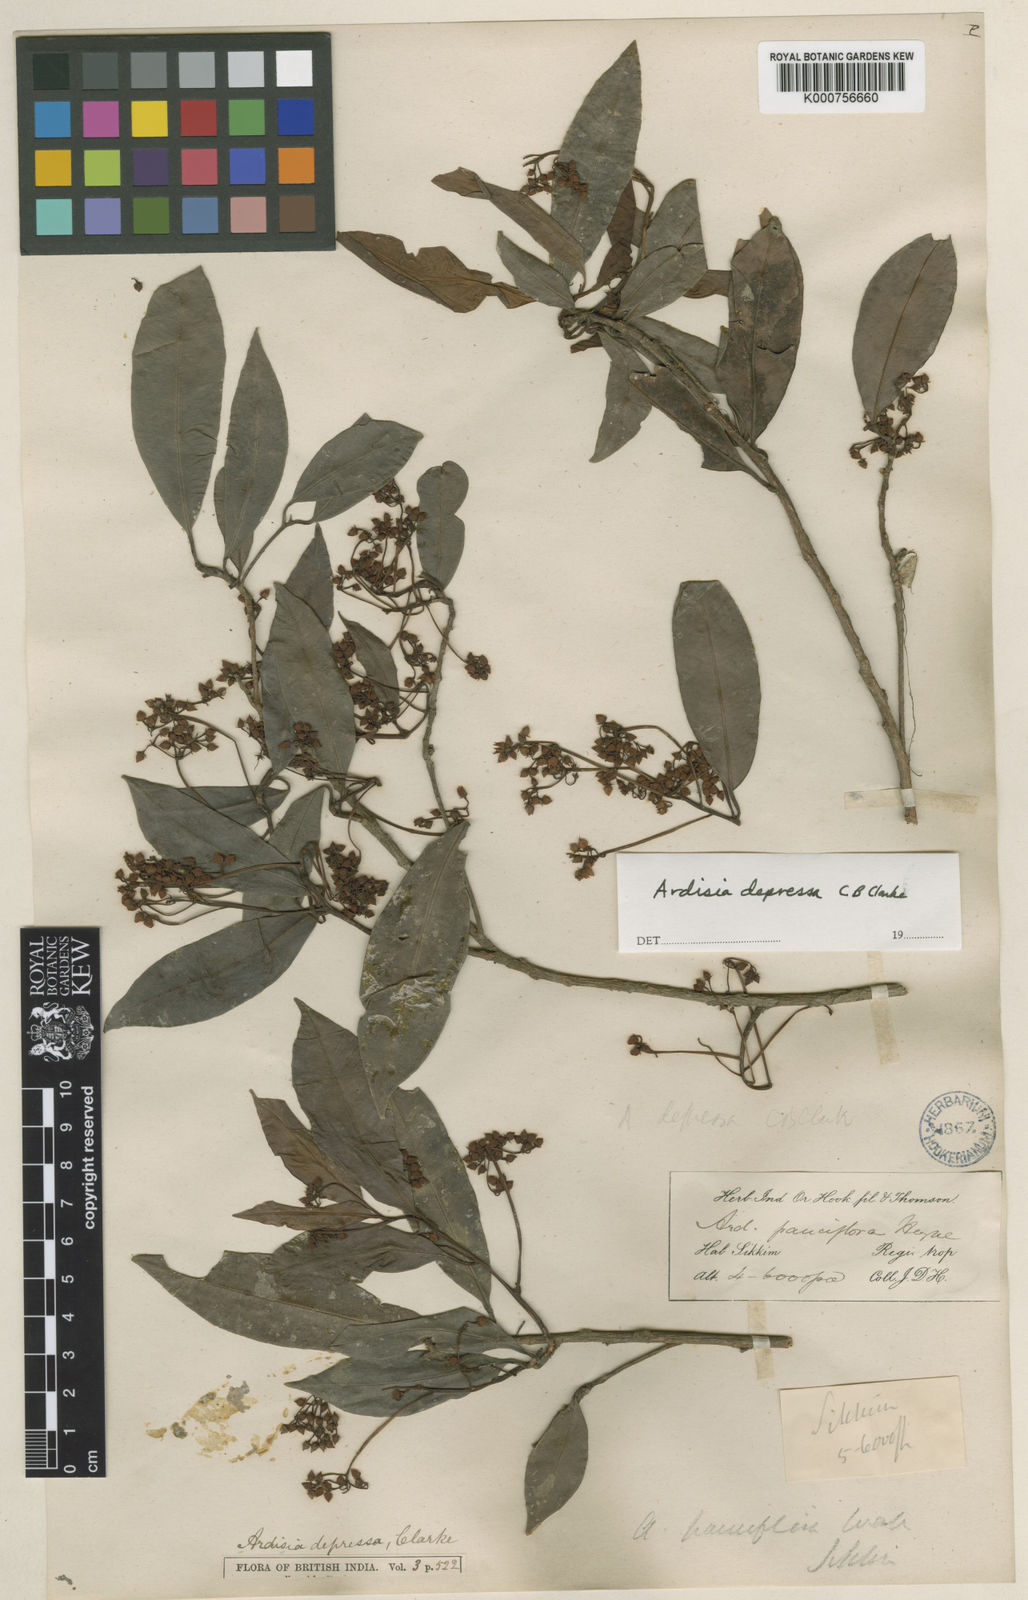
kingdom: Plantae
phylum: Tracheophyta
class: Magnoliopsida
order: Ericales
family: Primulaceae
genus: Ardisia
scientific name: Ardisia floribunda
